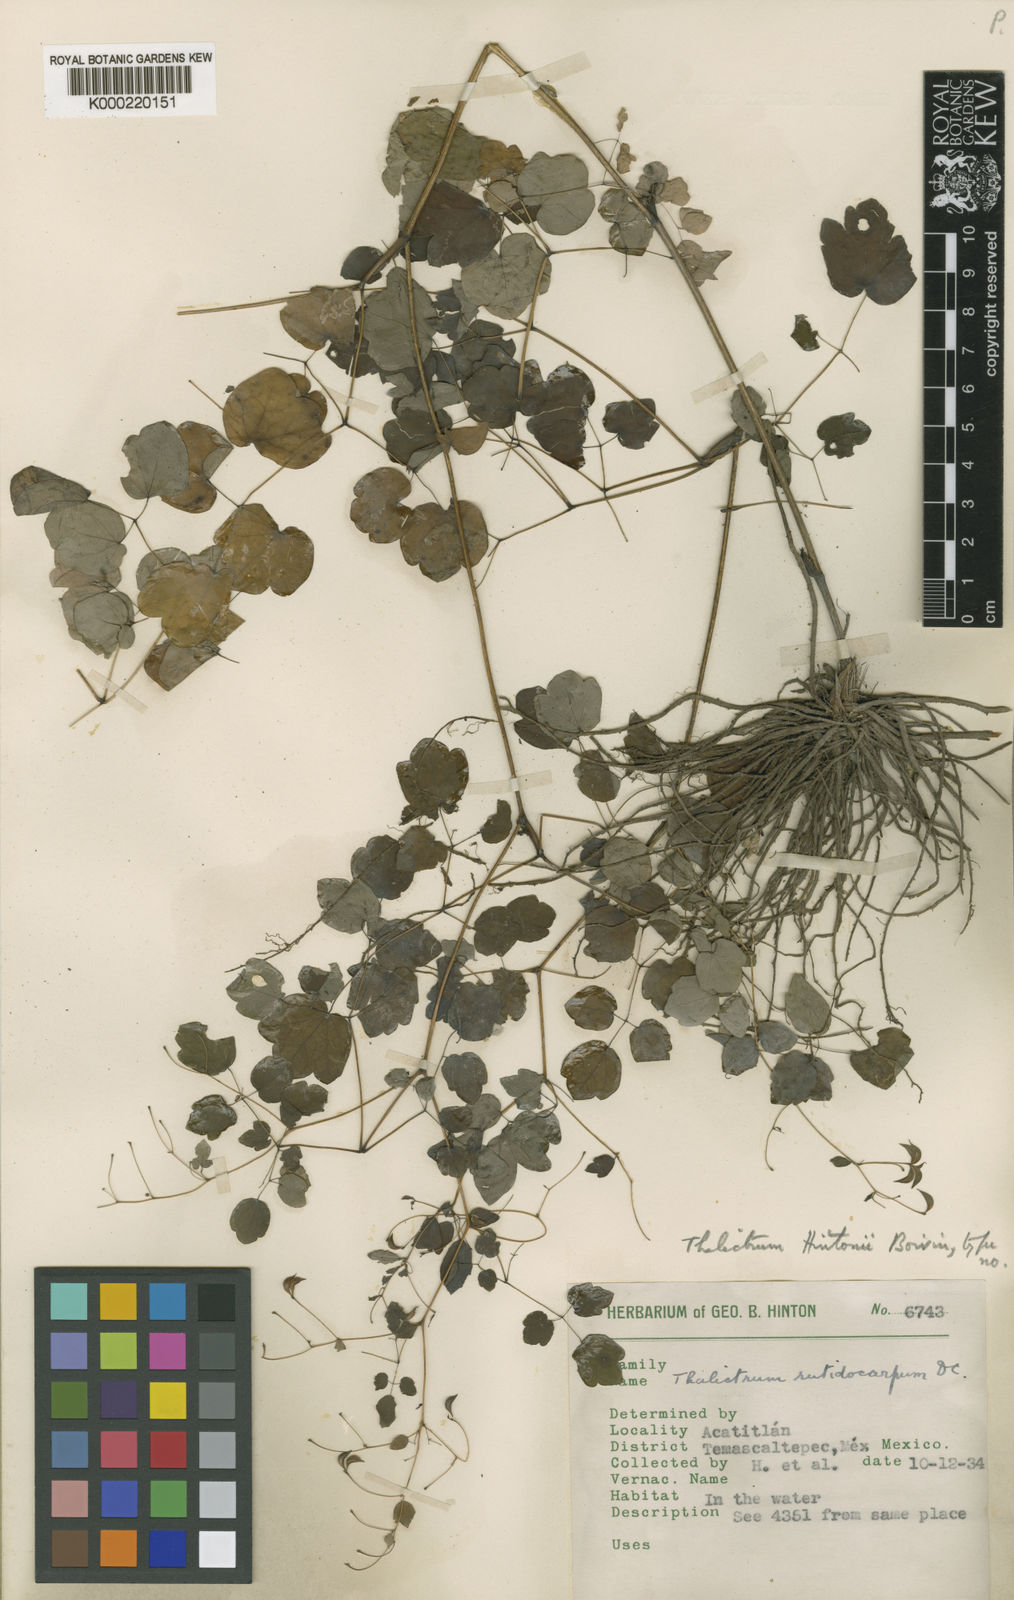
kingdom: Plantae
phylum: Tracheophyta
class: Magnoliopsida
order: Ranunculales
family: Ranunculaceae
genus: Thalictrum
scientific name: Thalictrum longistylum
